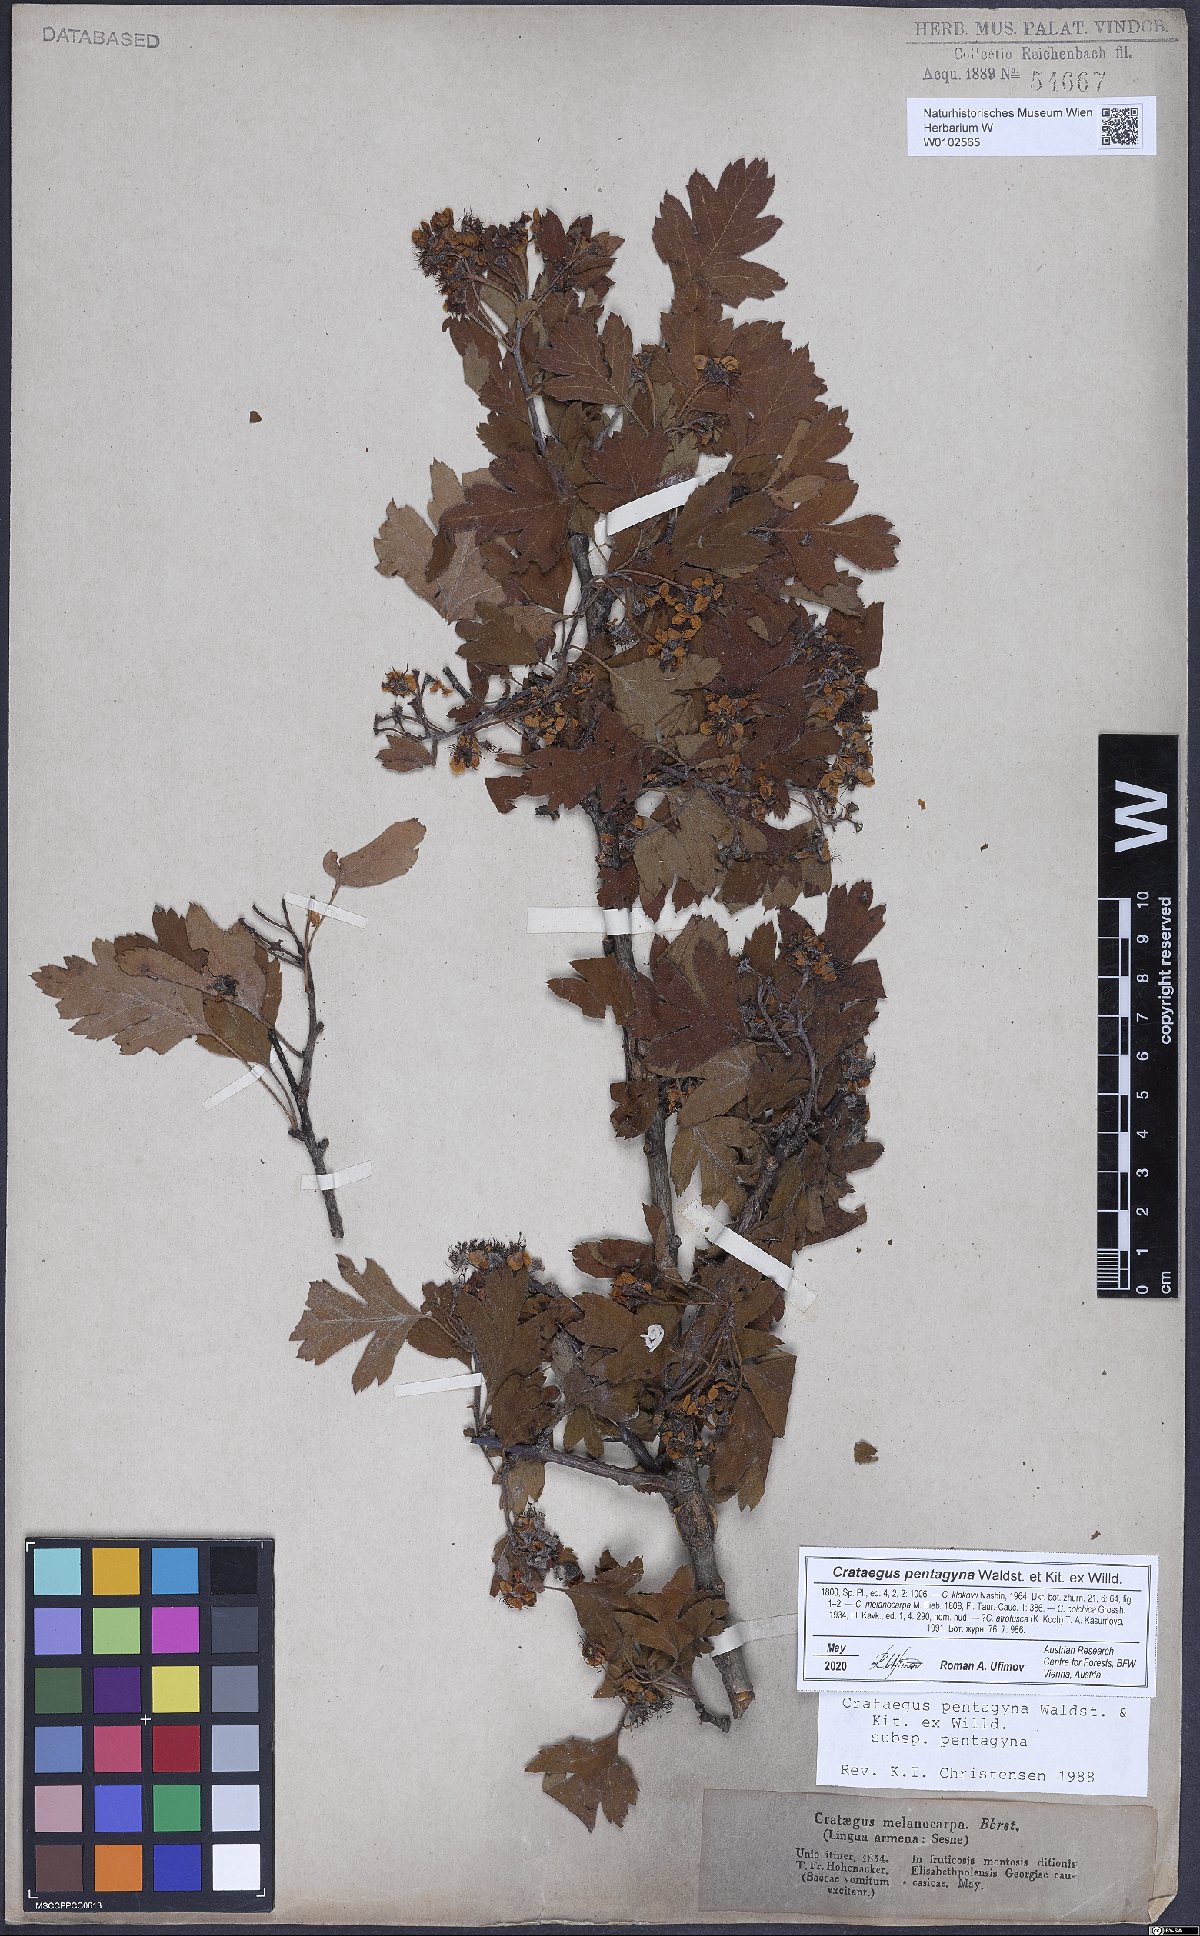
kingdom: Plantae
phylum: Tracheophyta
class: Magnoliopsida
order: Rosales
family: Rosaceae
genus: Crataegus
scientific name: Crataegus pentagyna
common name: Small-flowered black hawthorn
